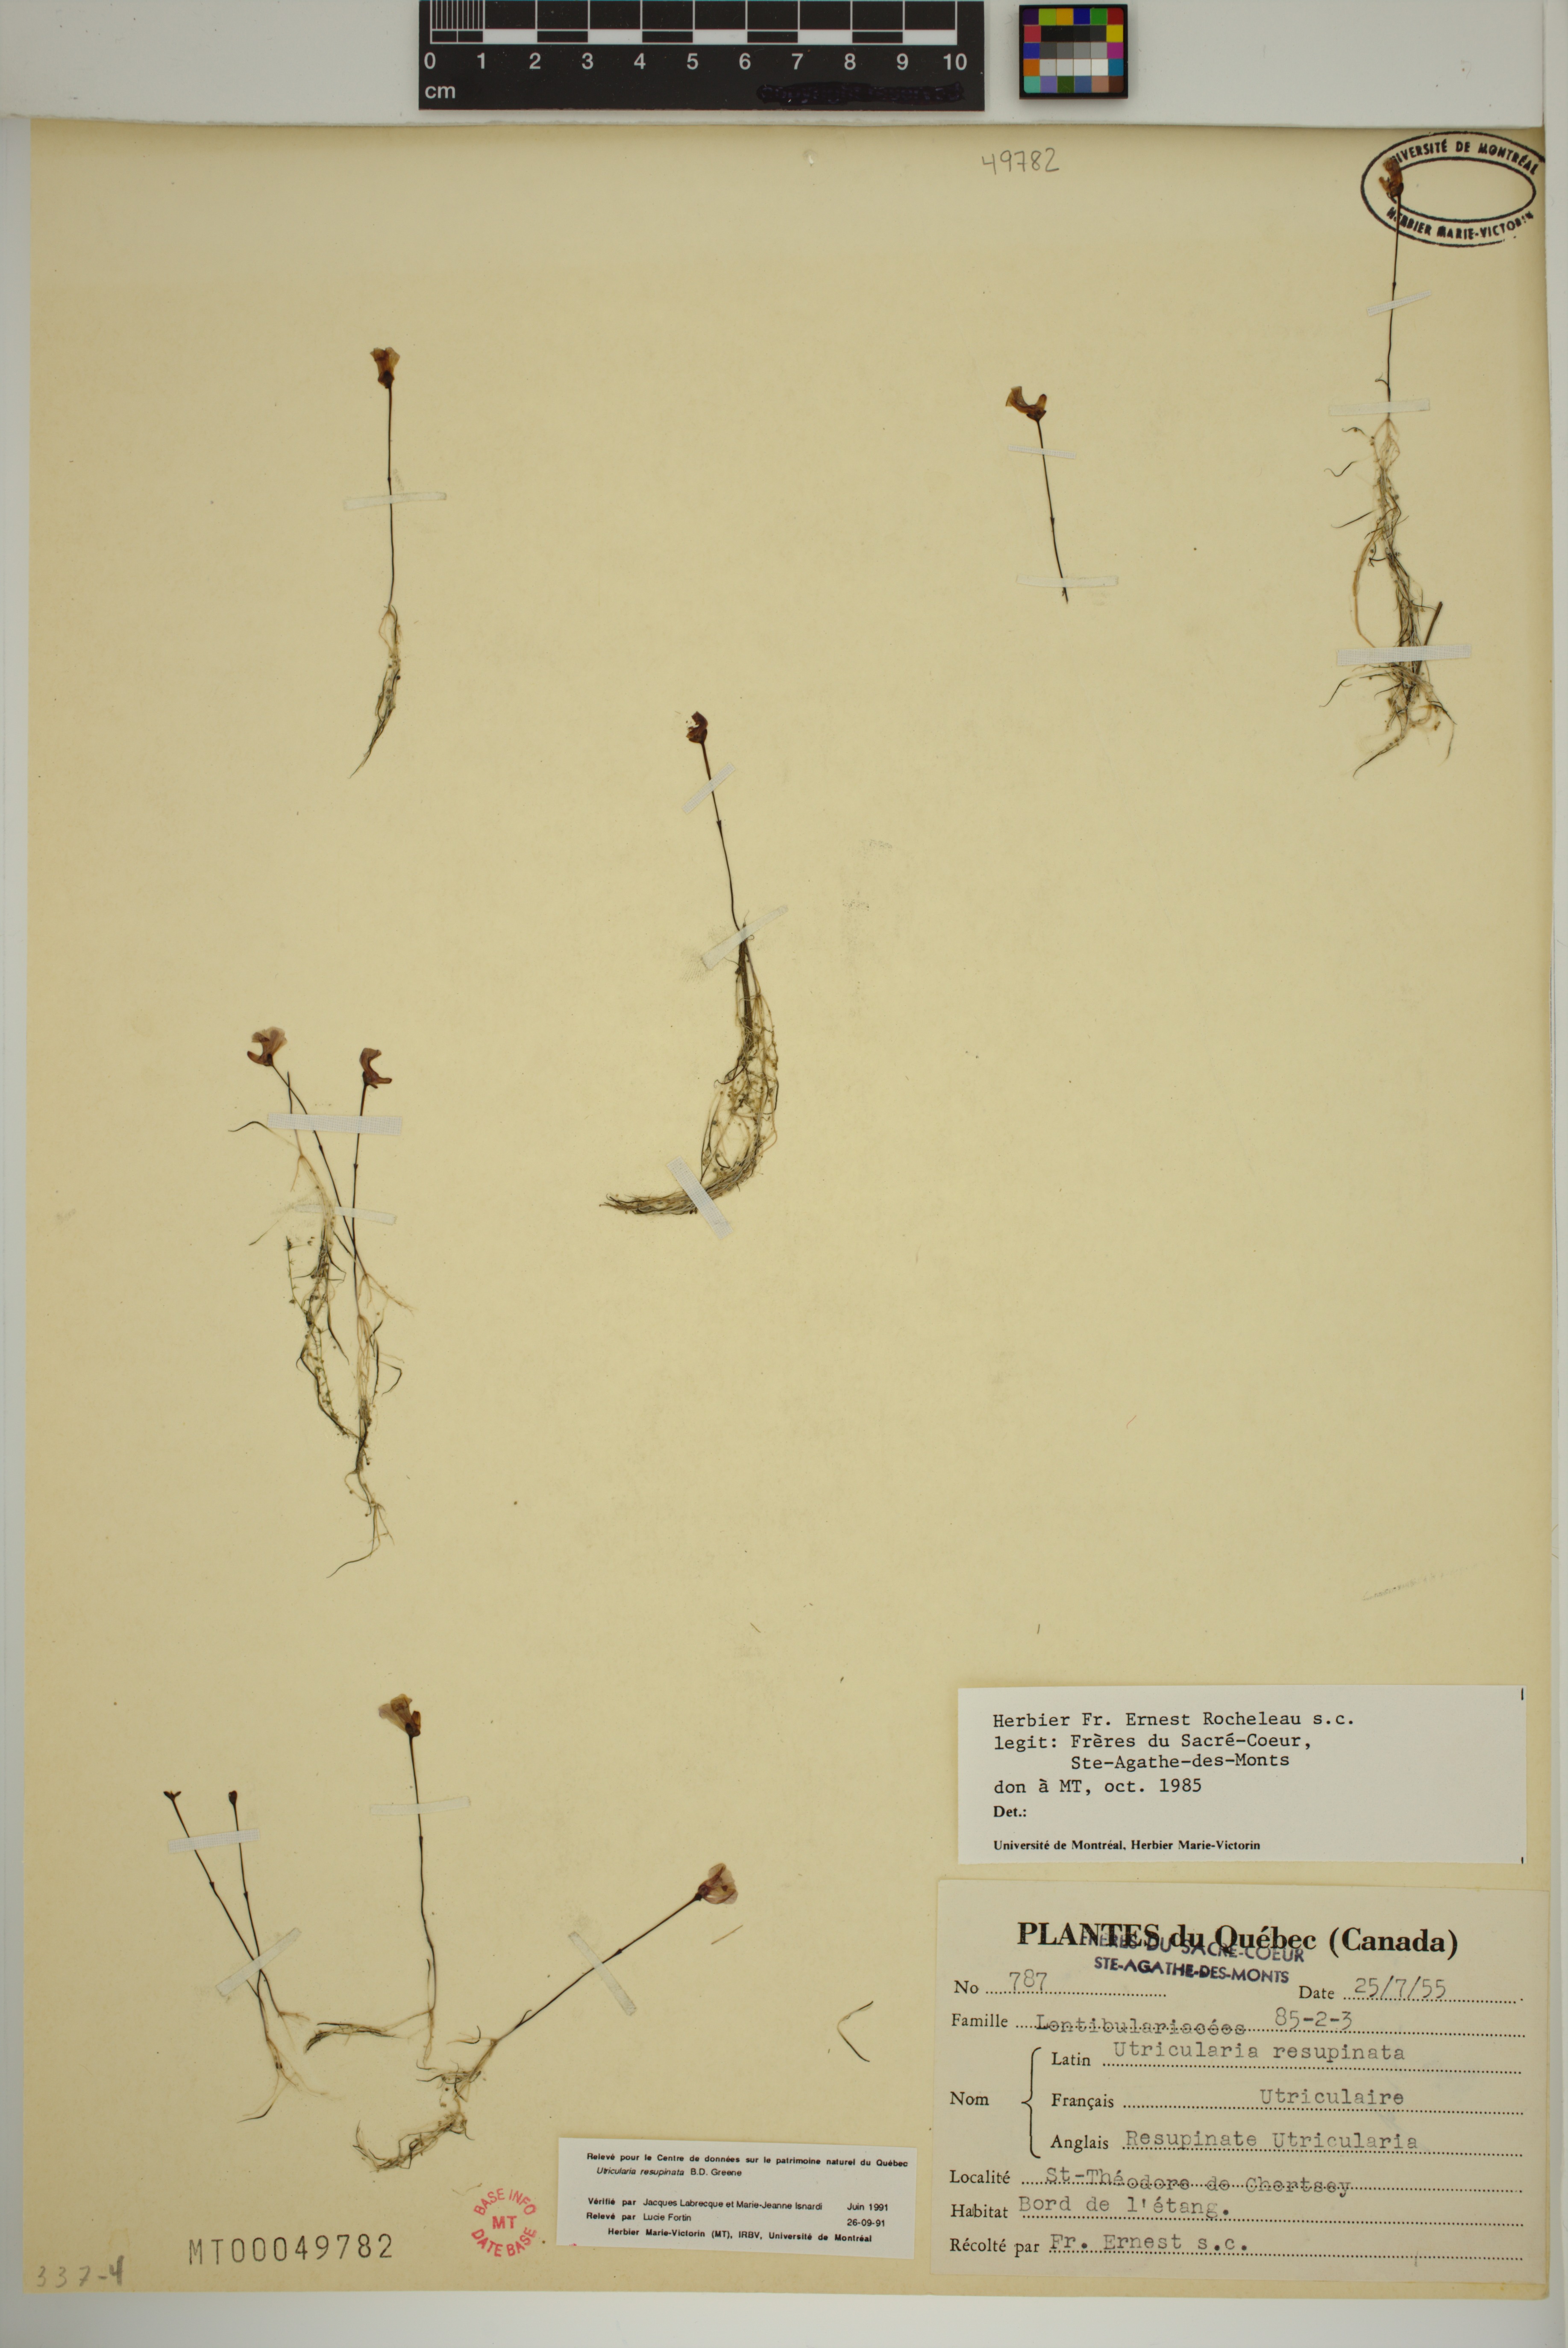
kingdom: Plantae
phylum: Tracheophyta
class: Magnoliopsida
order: Lamiales
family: Lentibulariaceae
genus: Utricularia
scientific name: Utricularia resupinata
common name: Northeastern bladderwort
